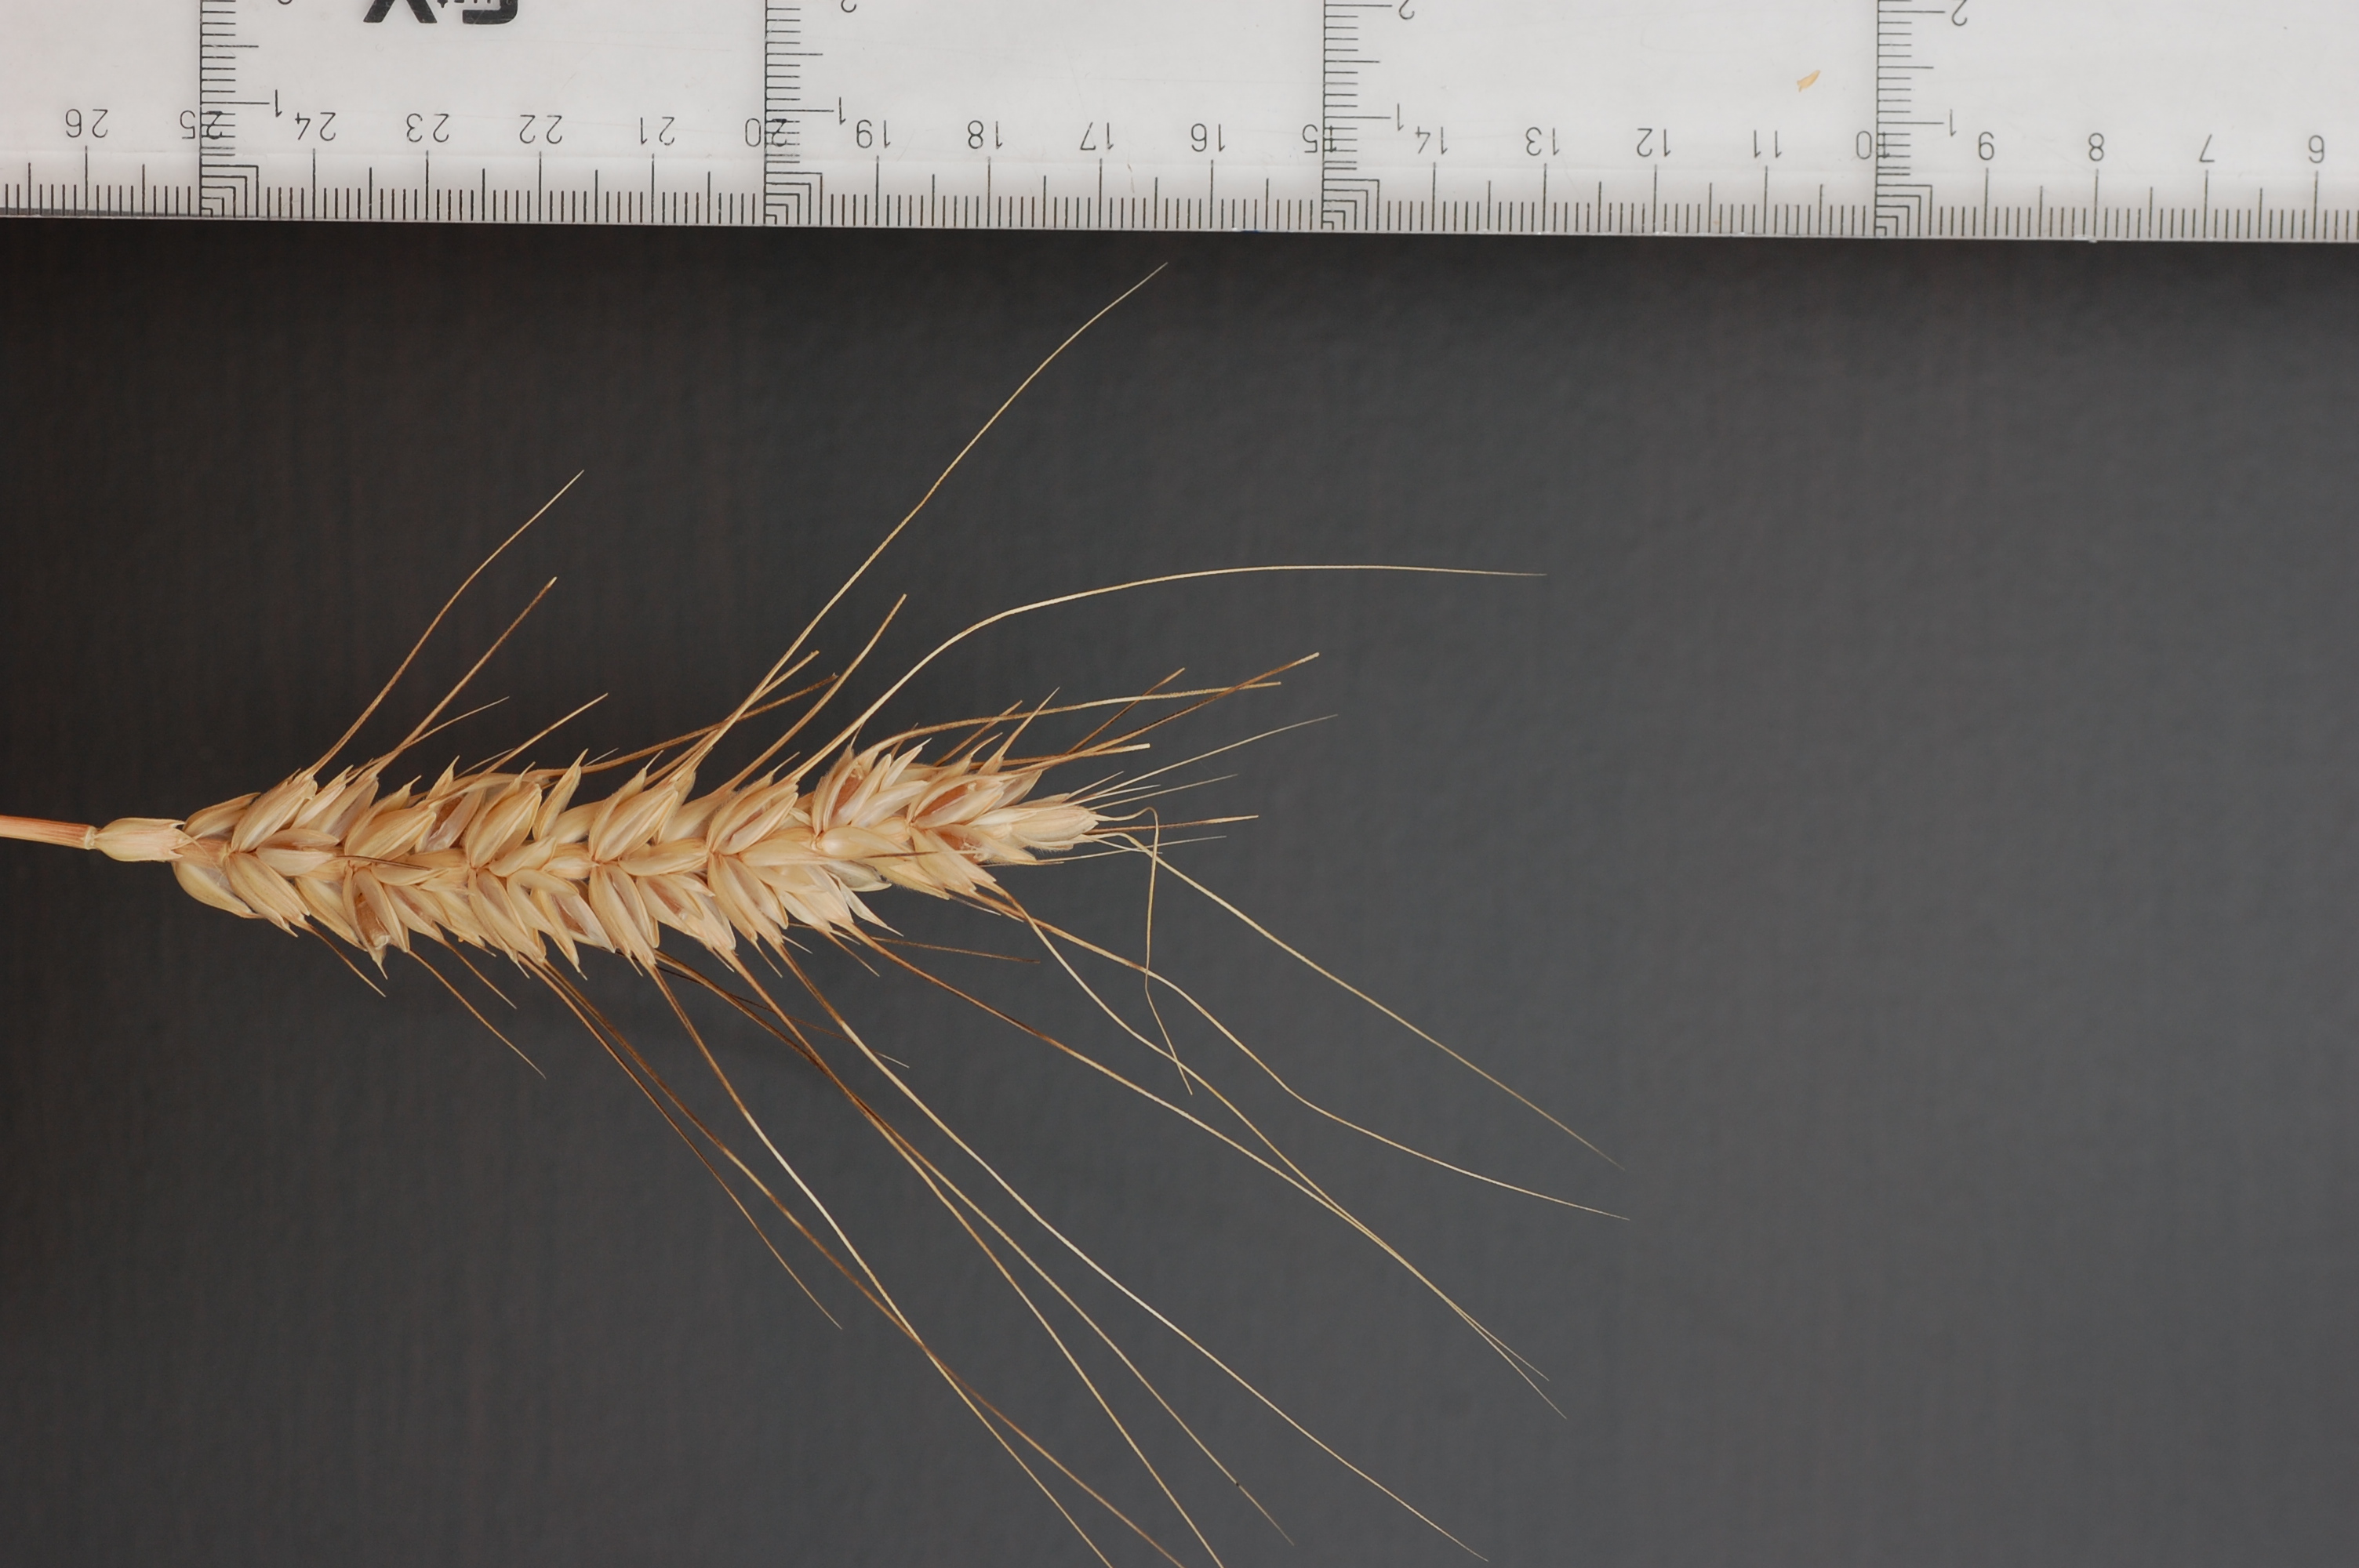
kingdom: Plantae
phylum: Tracheophyta
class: Liliopsida
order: Poales
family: Poaceae
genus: Triticum
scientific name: Triticum aestivum
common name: Common wheat
